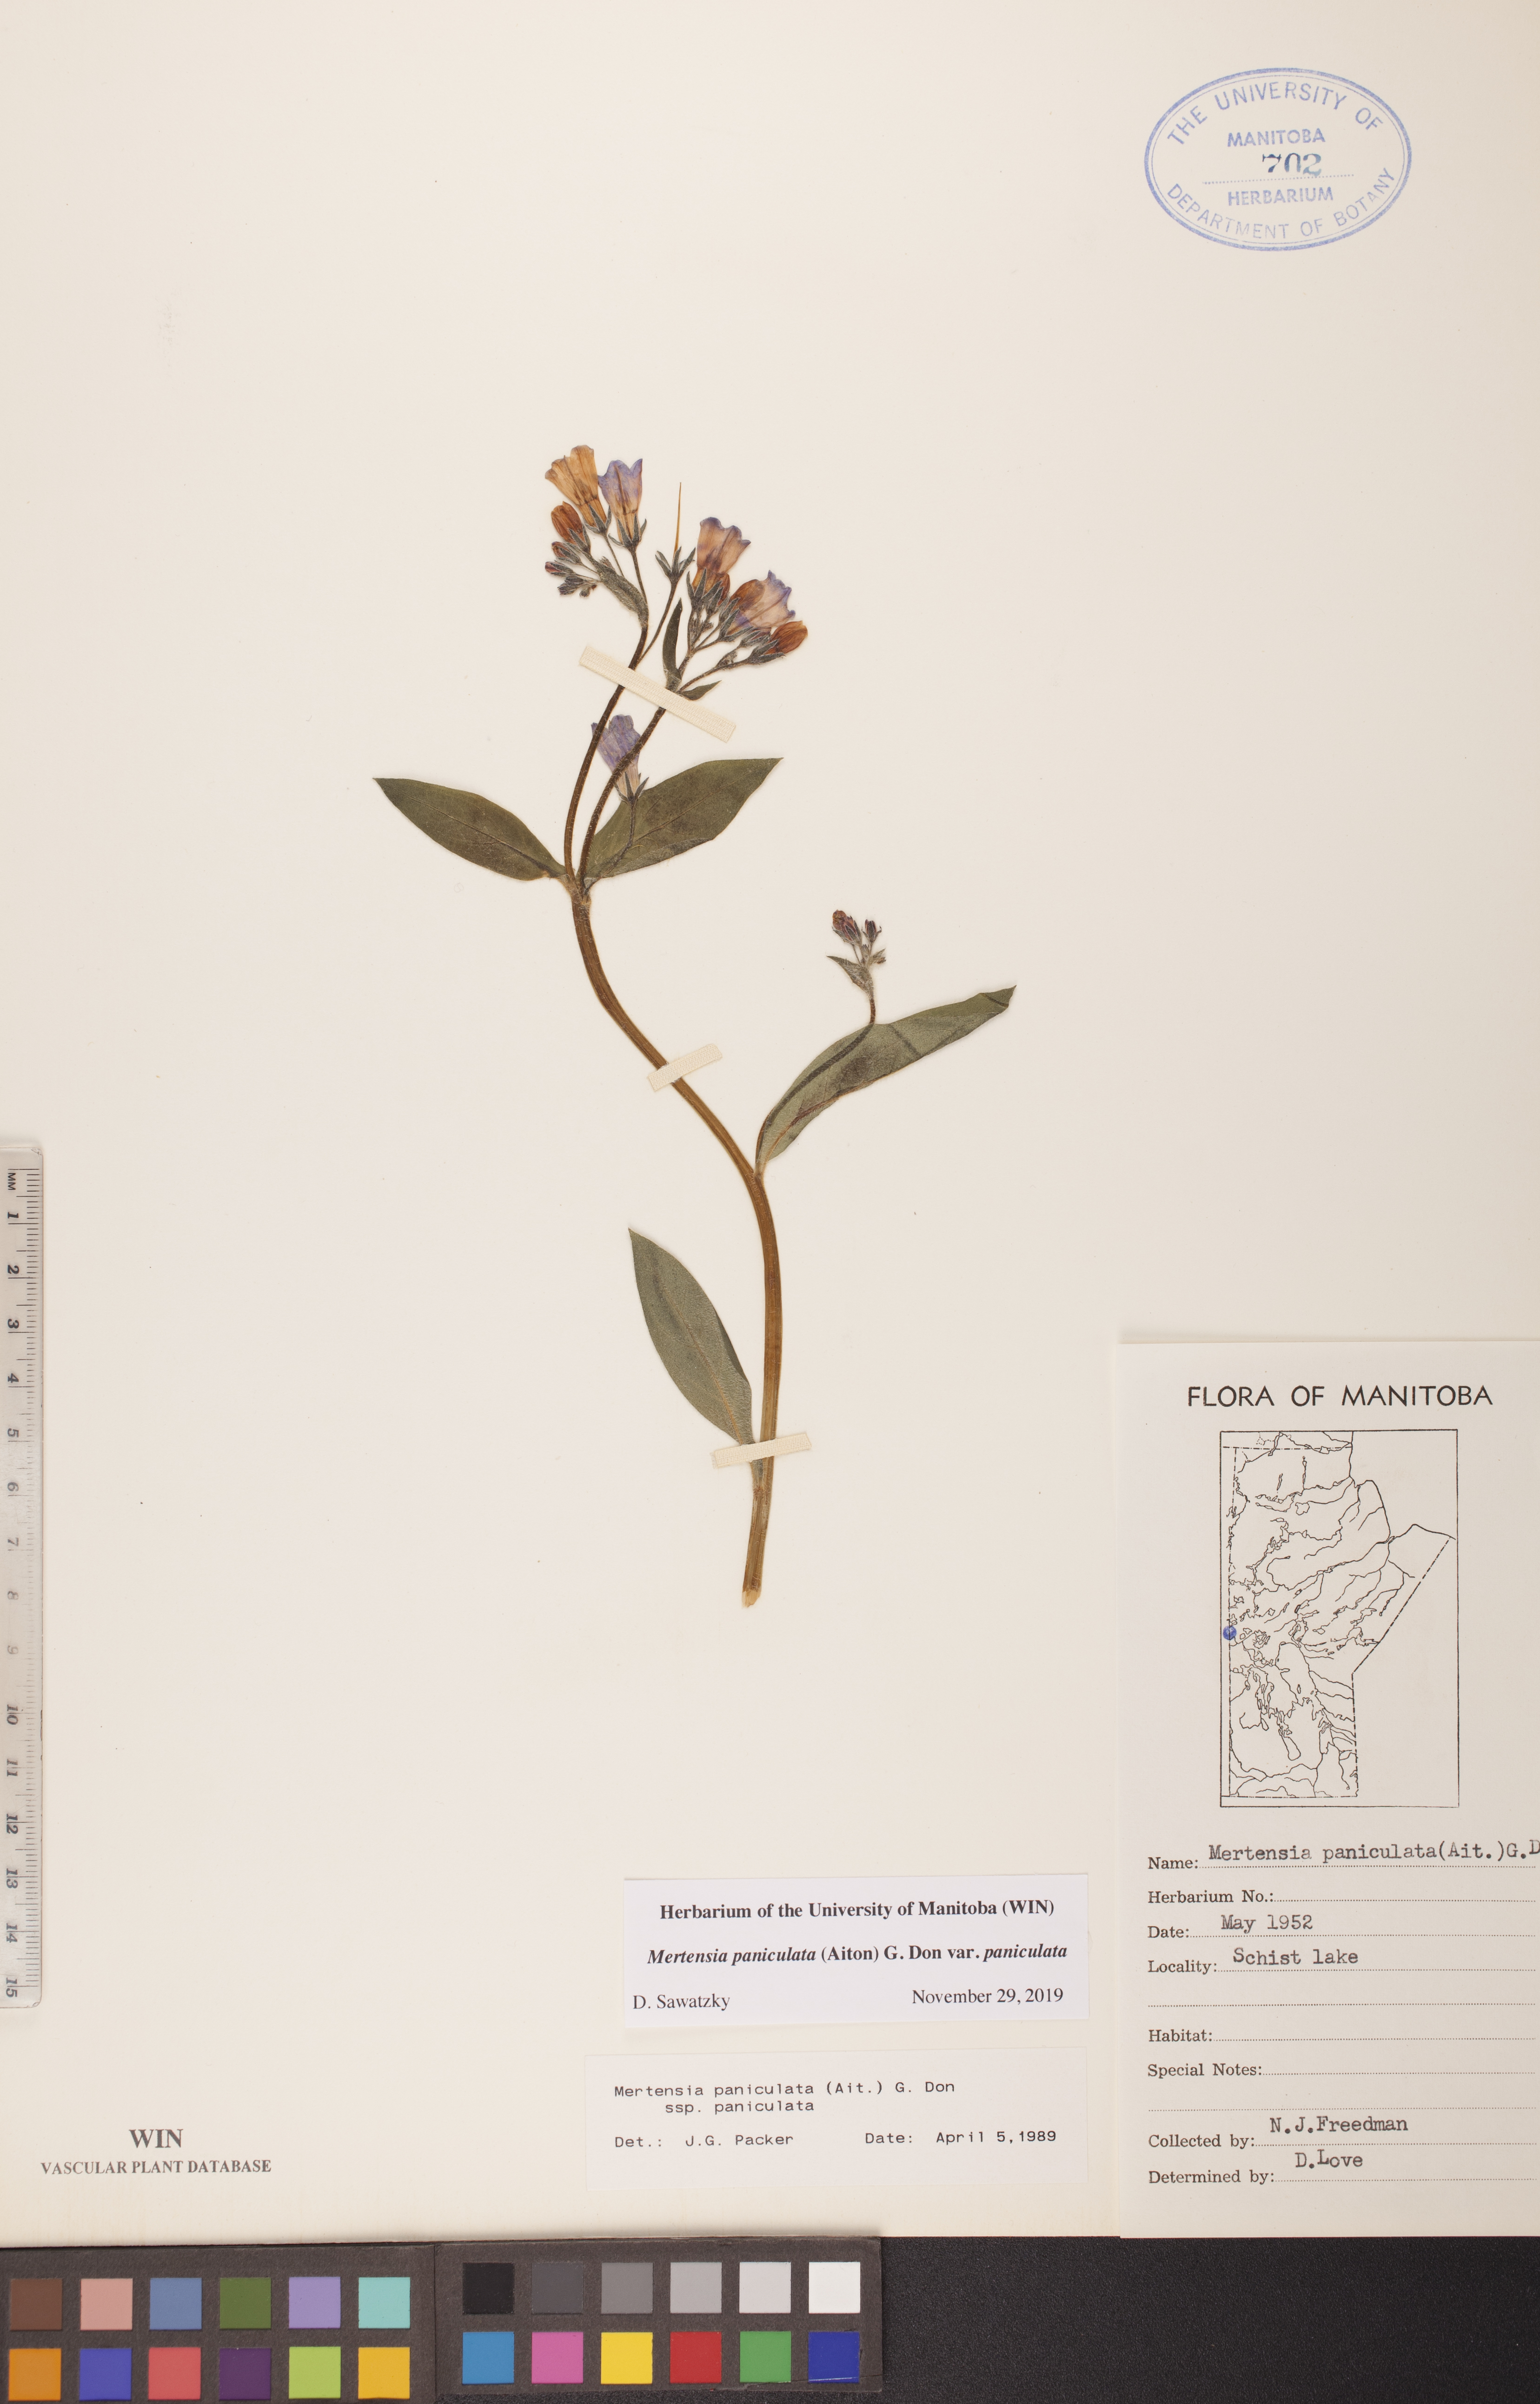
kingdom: Plantae
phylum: Tracheophyta
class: Magnoliopsida
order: Boraginales
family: Boraginaceae
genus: Mertensia
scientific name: Mertensia paniculata
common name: Panicled bluebells
